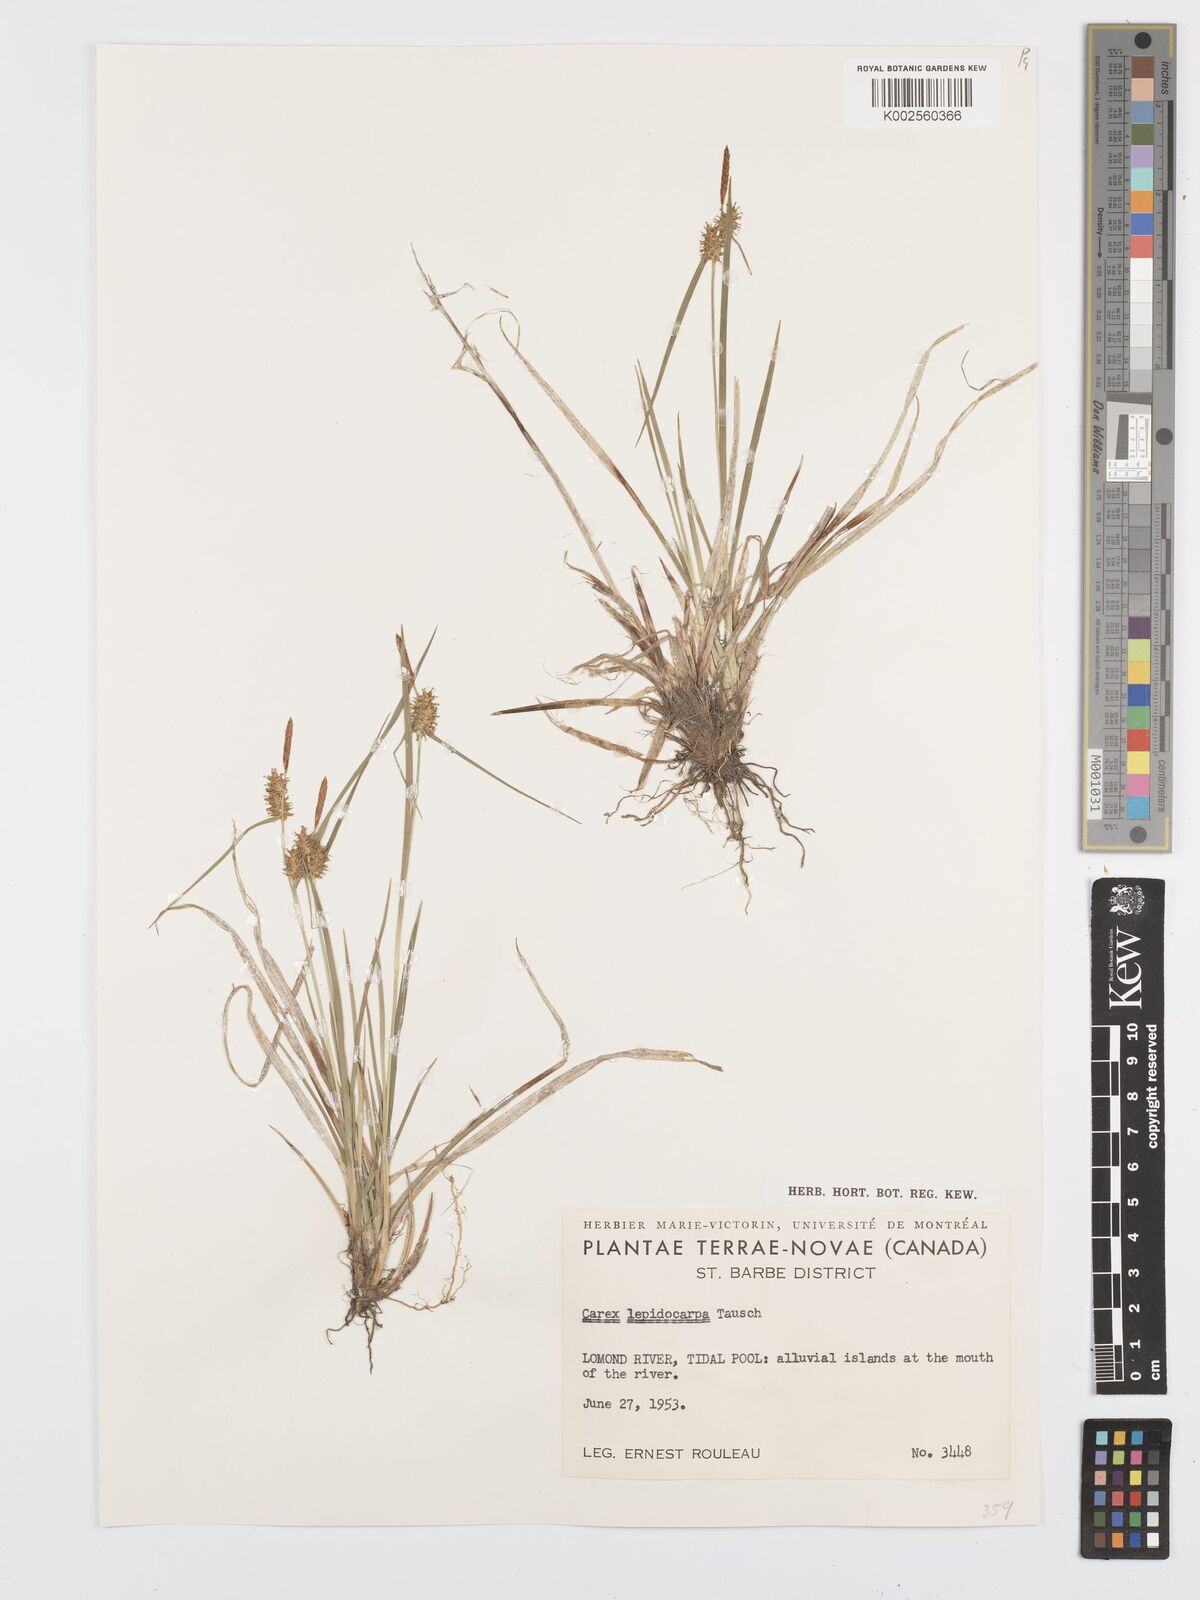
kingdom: Plantae
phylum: Tracheophyta
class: Liliopsida
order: Poales
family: Cyperaceae
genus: Carex
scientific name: Carex lepidocarpa
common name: Long-stalked yellow-sedge
